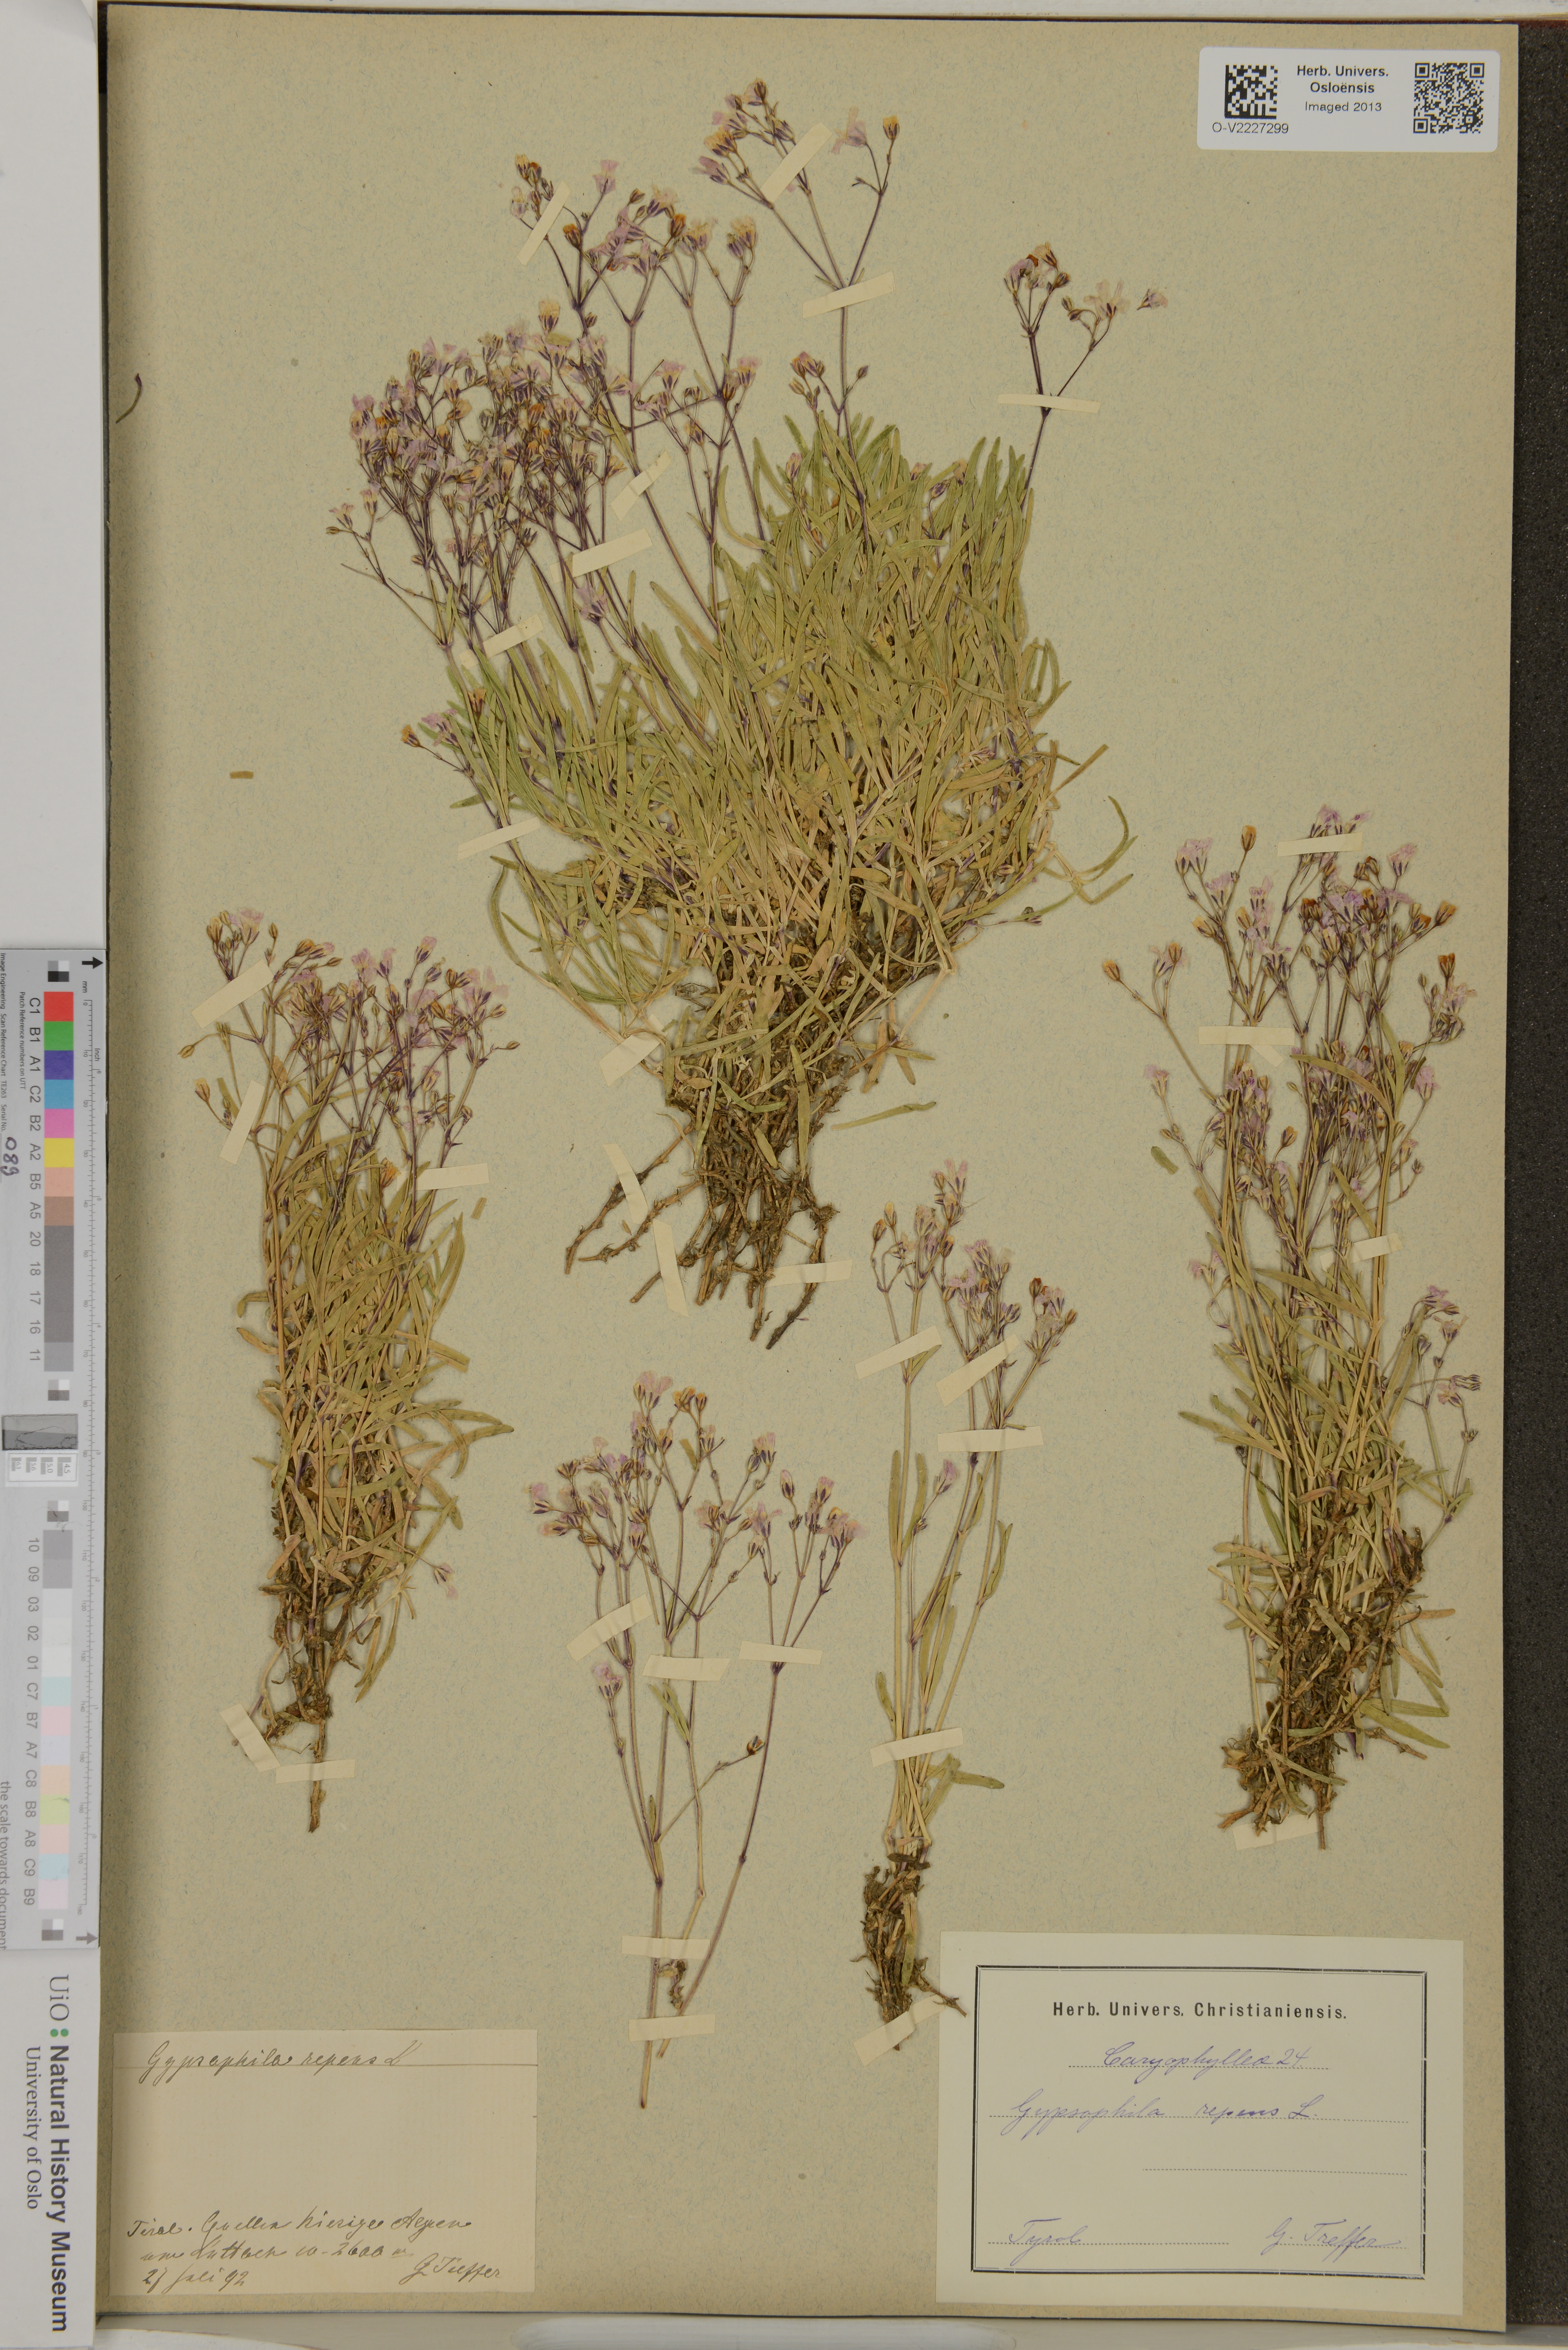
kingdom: Plantae
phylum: Tracheophyta
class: Magnoliopsida
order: Caryophyllales
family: Caryophyllaceae
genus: Gypsophila
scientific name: Gypsophila repens
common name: Creeping baby's-breath
